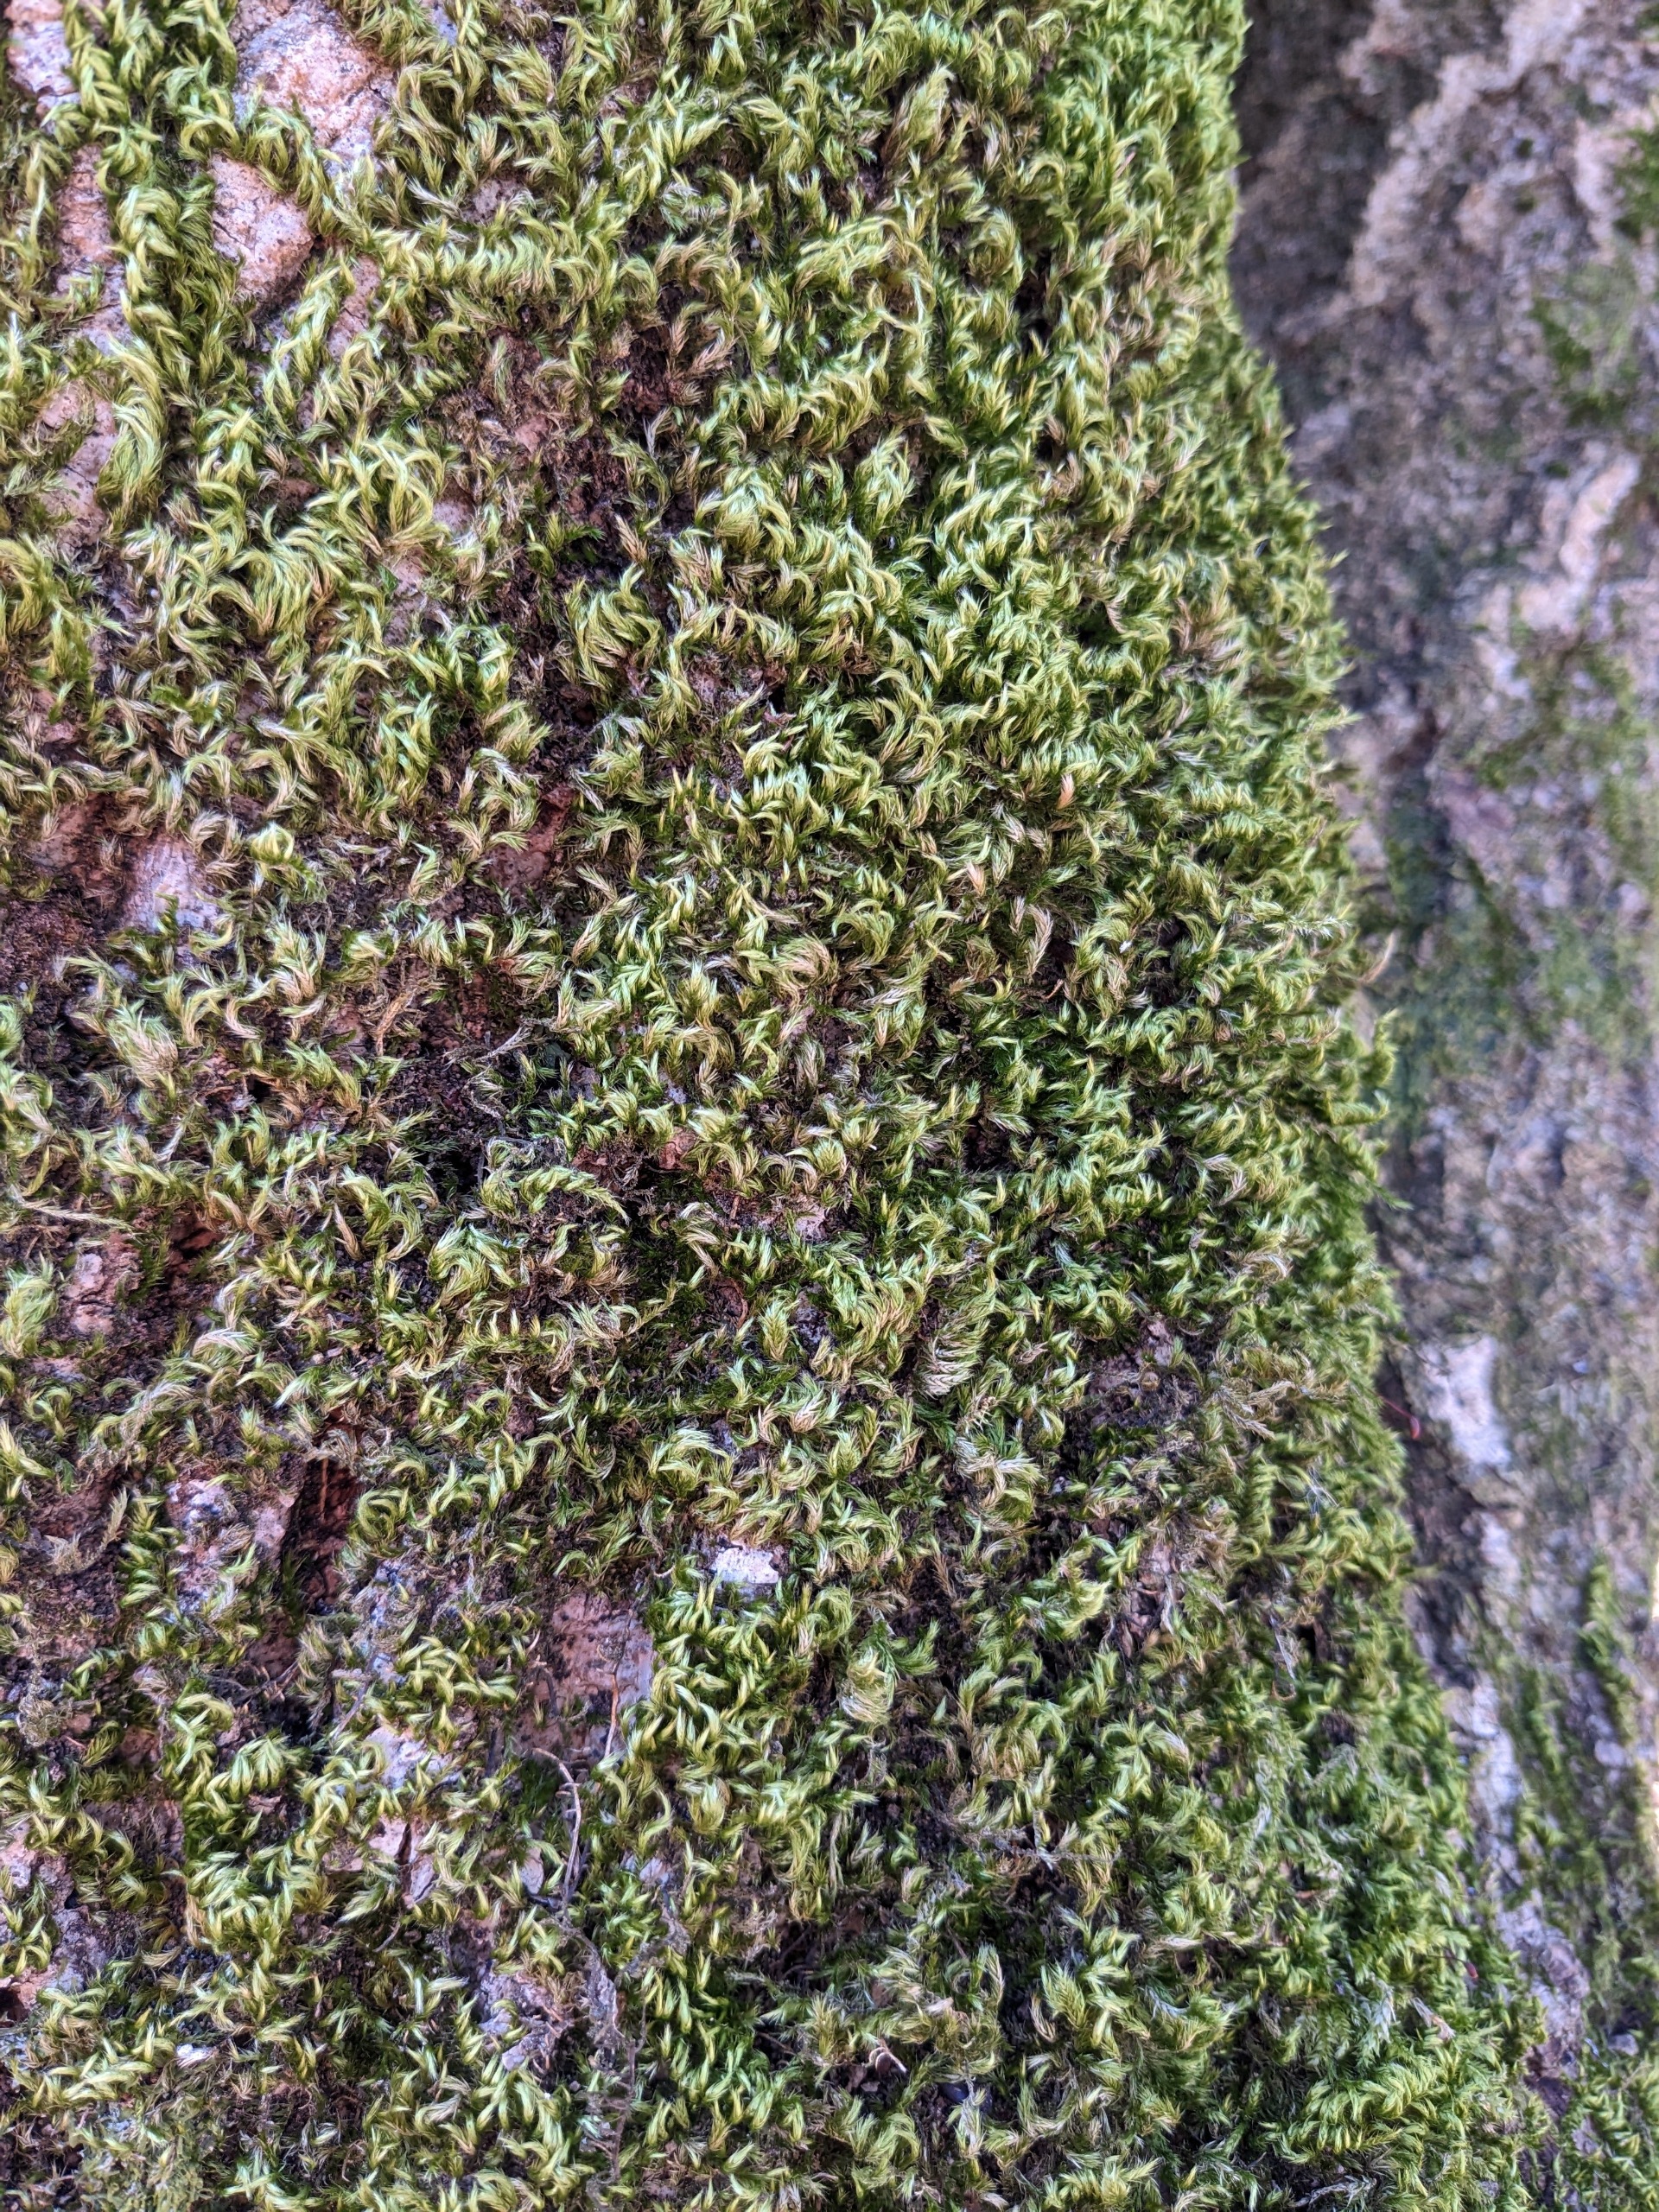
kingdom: Plantae
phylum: Bryophyta
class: Bryopsida
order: Hypnales
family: Brachytheciaceae
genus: Homalothecium
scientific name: Homalothecium sericeum
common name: Krybende silkemos
